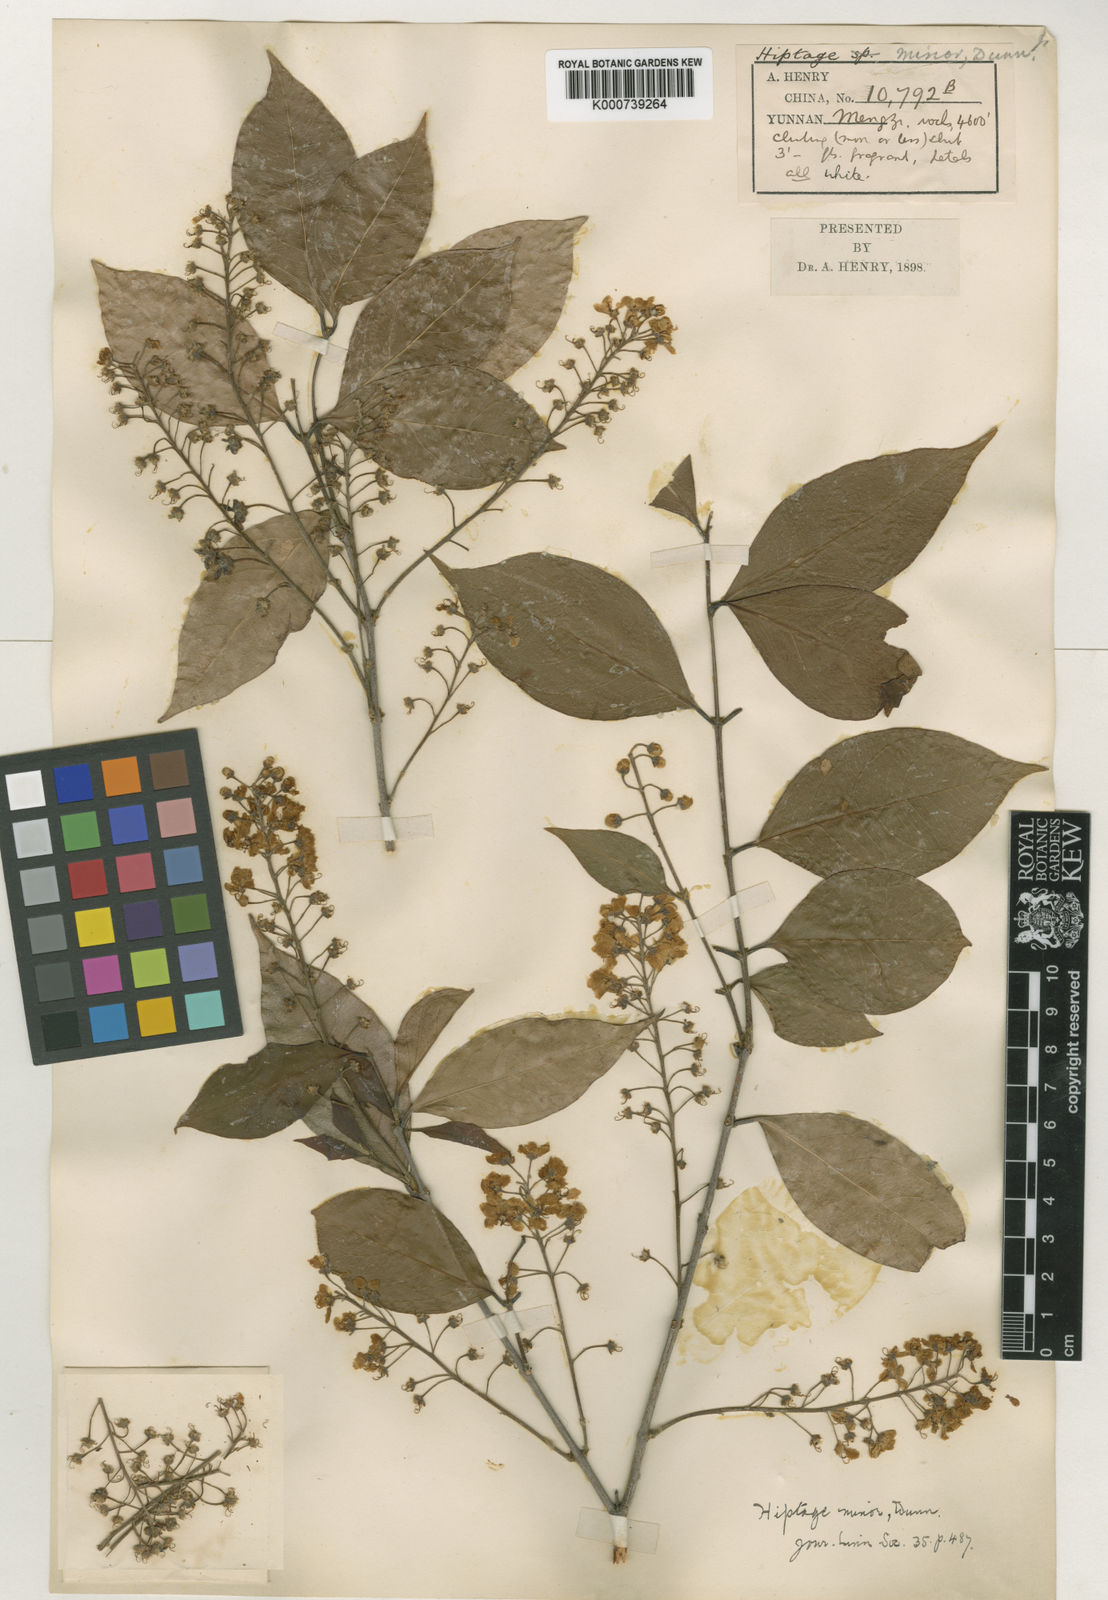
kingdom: Plantae
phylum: Tracheophyta
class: Magnoliopsida
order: Malpighiales
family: Malpighiaceae
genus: Hiptage
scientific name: Hiptage minor
